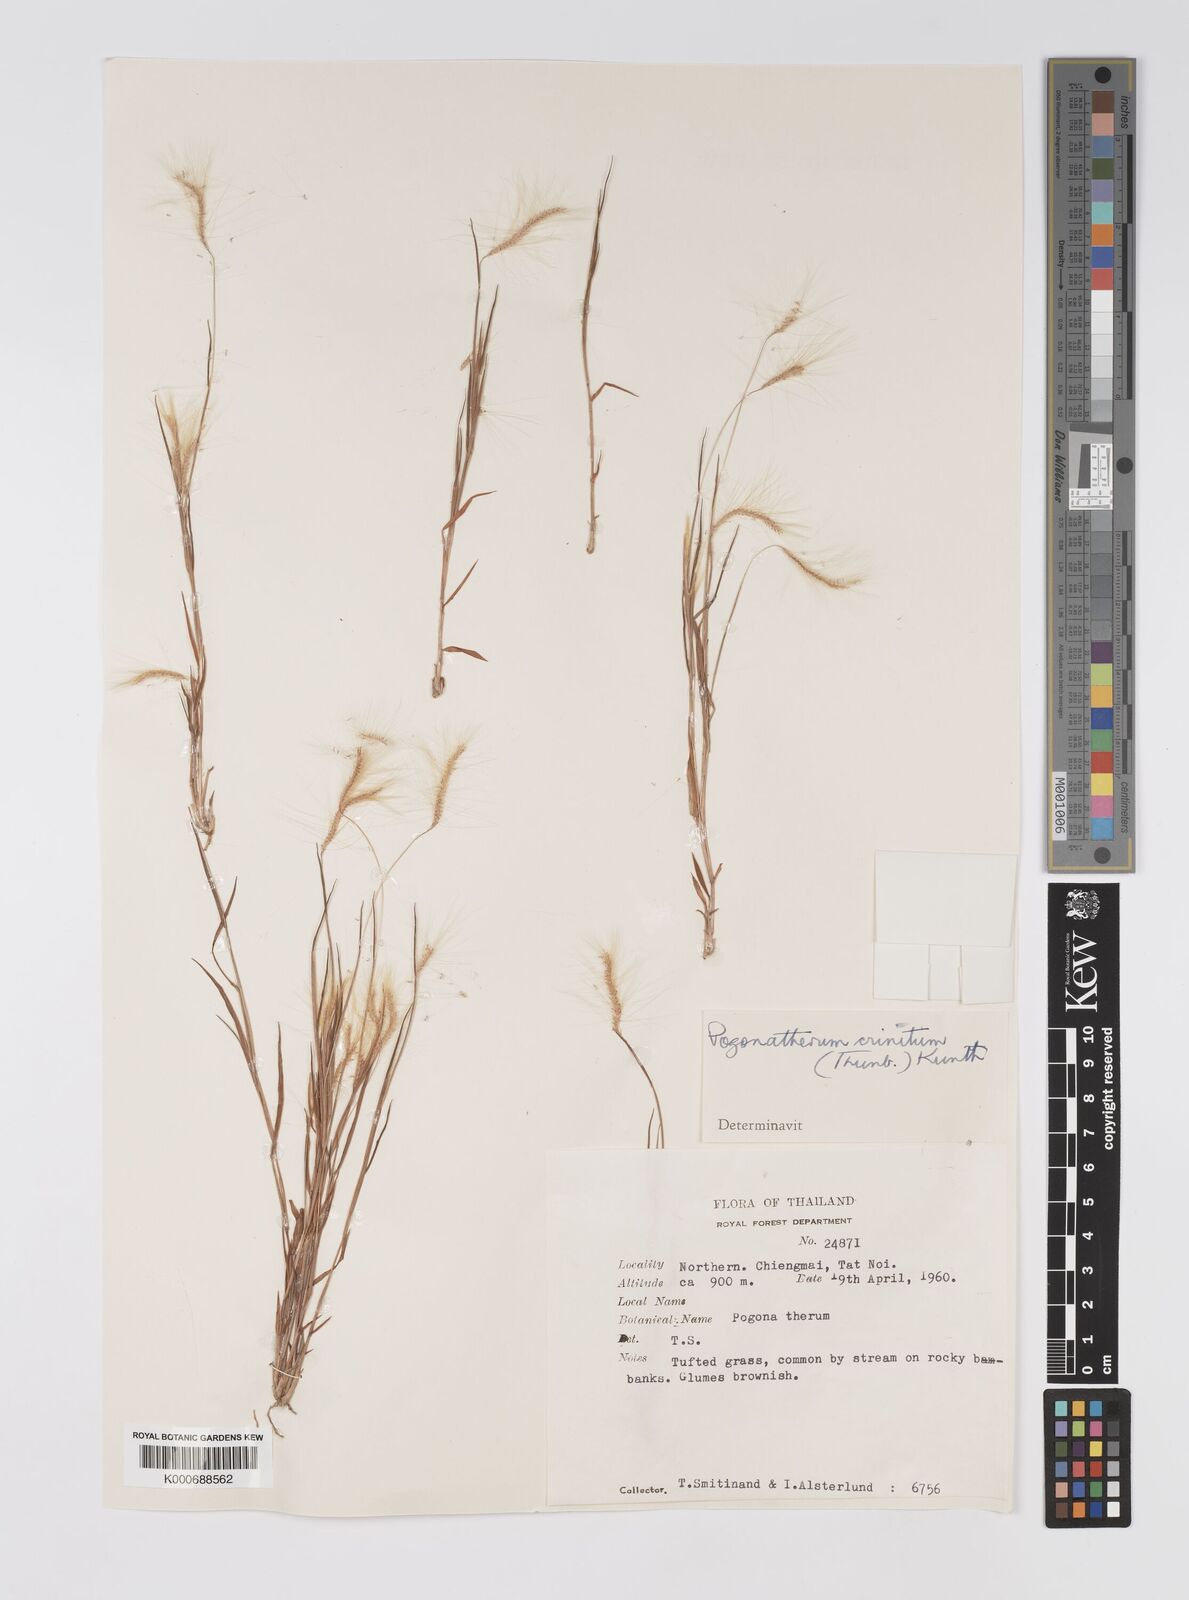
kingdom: Plantae
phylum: Tracheophyta
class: Liliopsida
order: Poales
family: Poaceae
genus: Pogonatherum
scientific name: Pogonatherum crinitum
